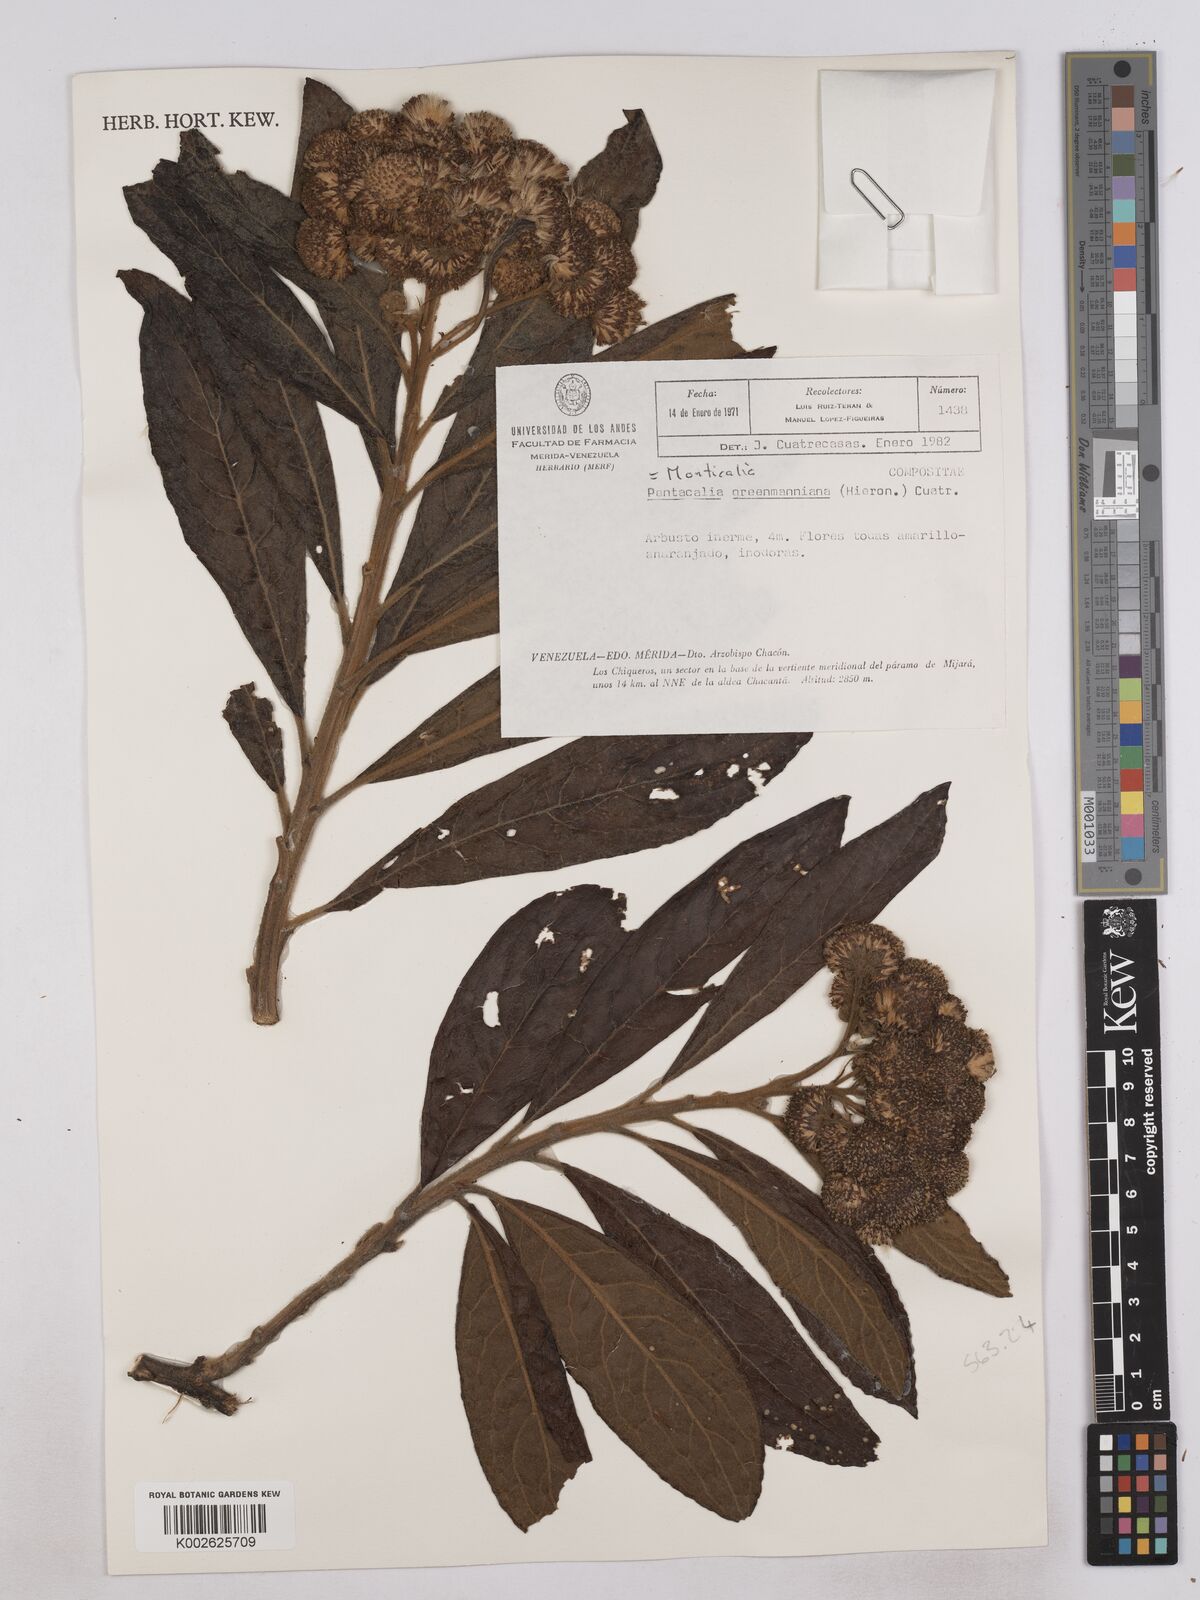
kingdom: Plantae
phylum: Tracheophyta
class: Magnoliopsida
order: Asterales
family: Asteraceae
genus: Monticalia
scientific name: Monticalia greenmaniana
